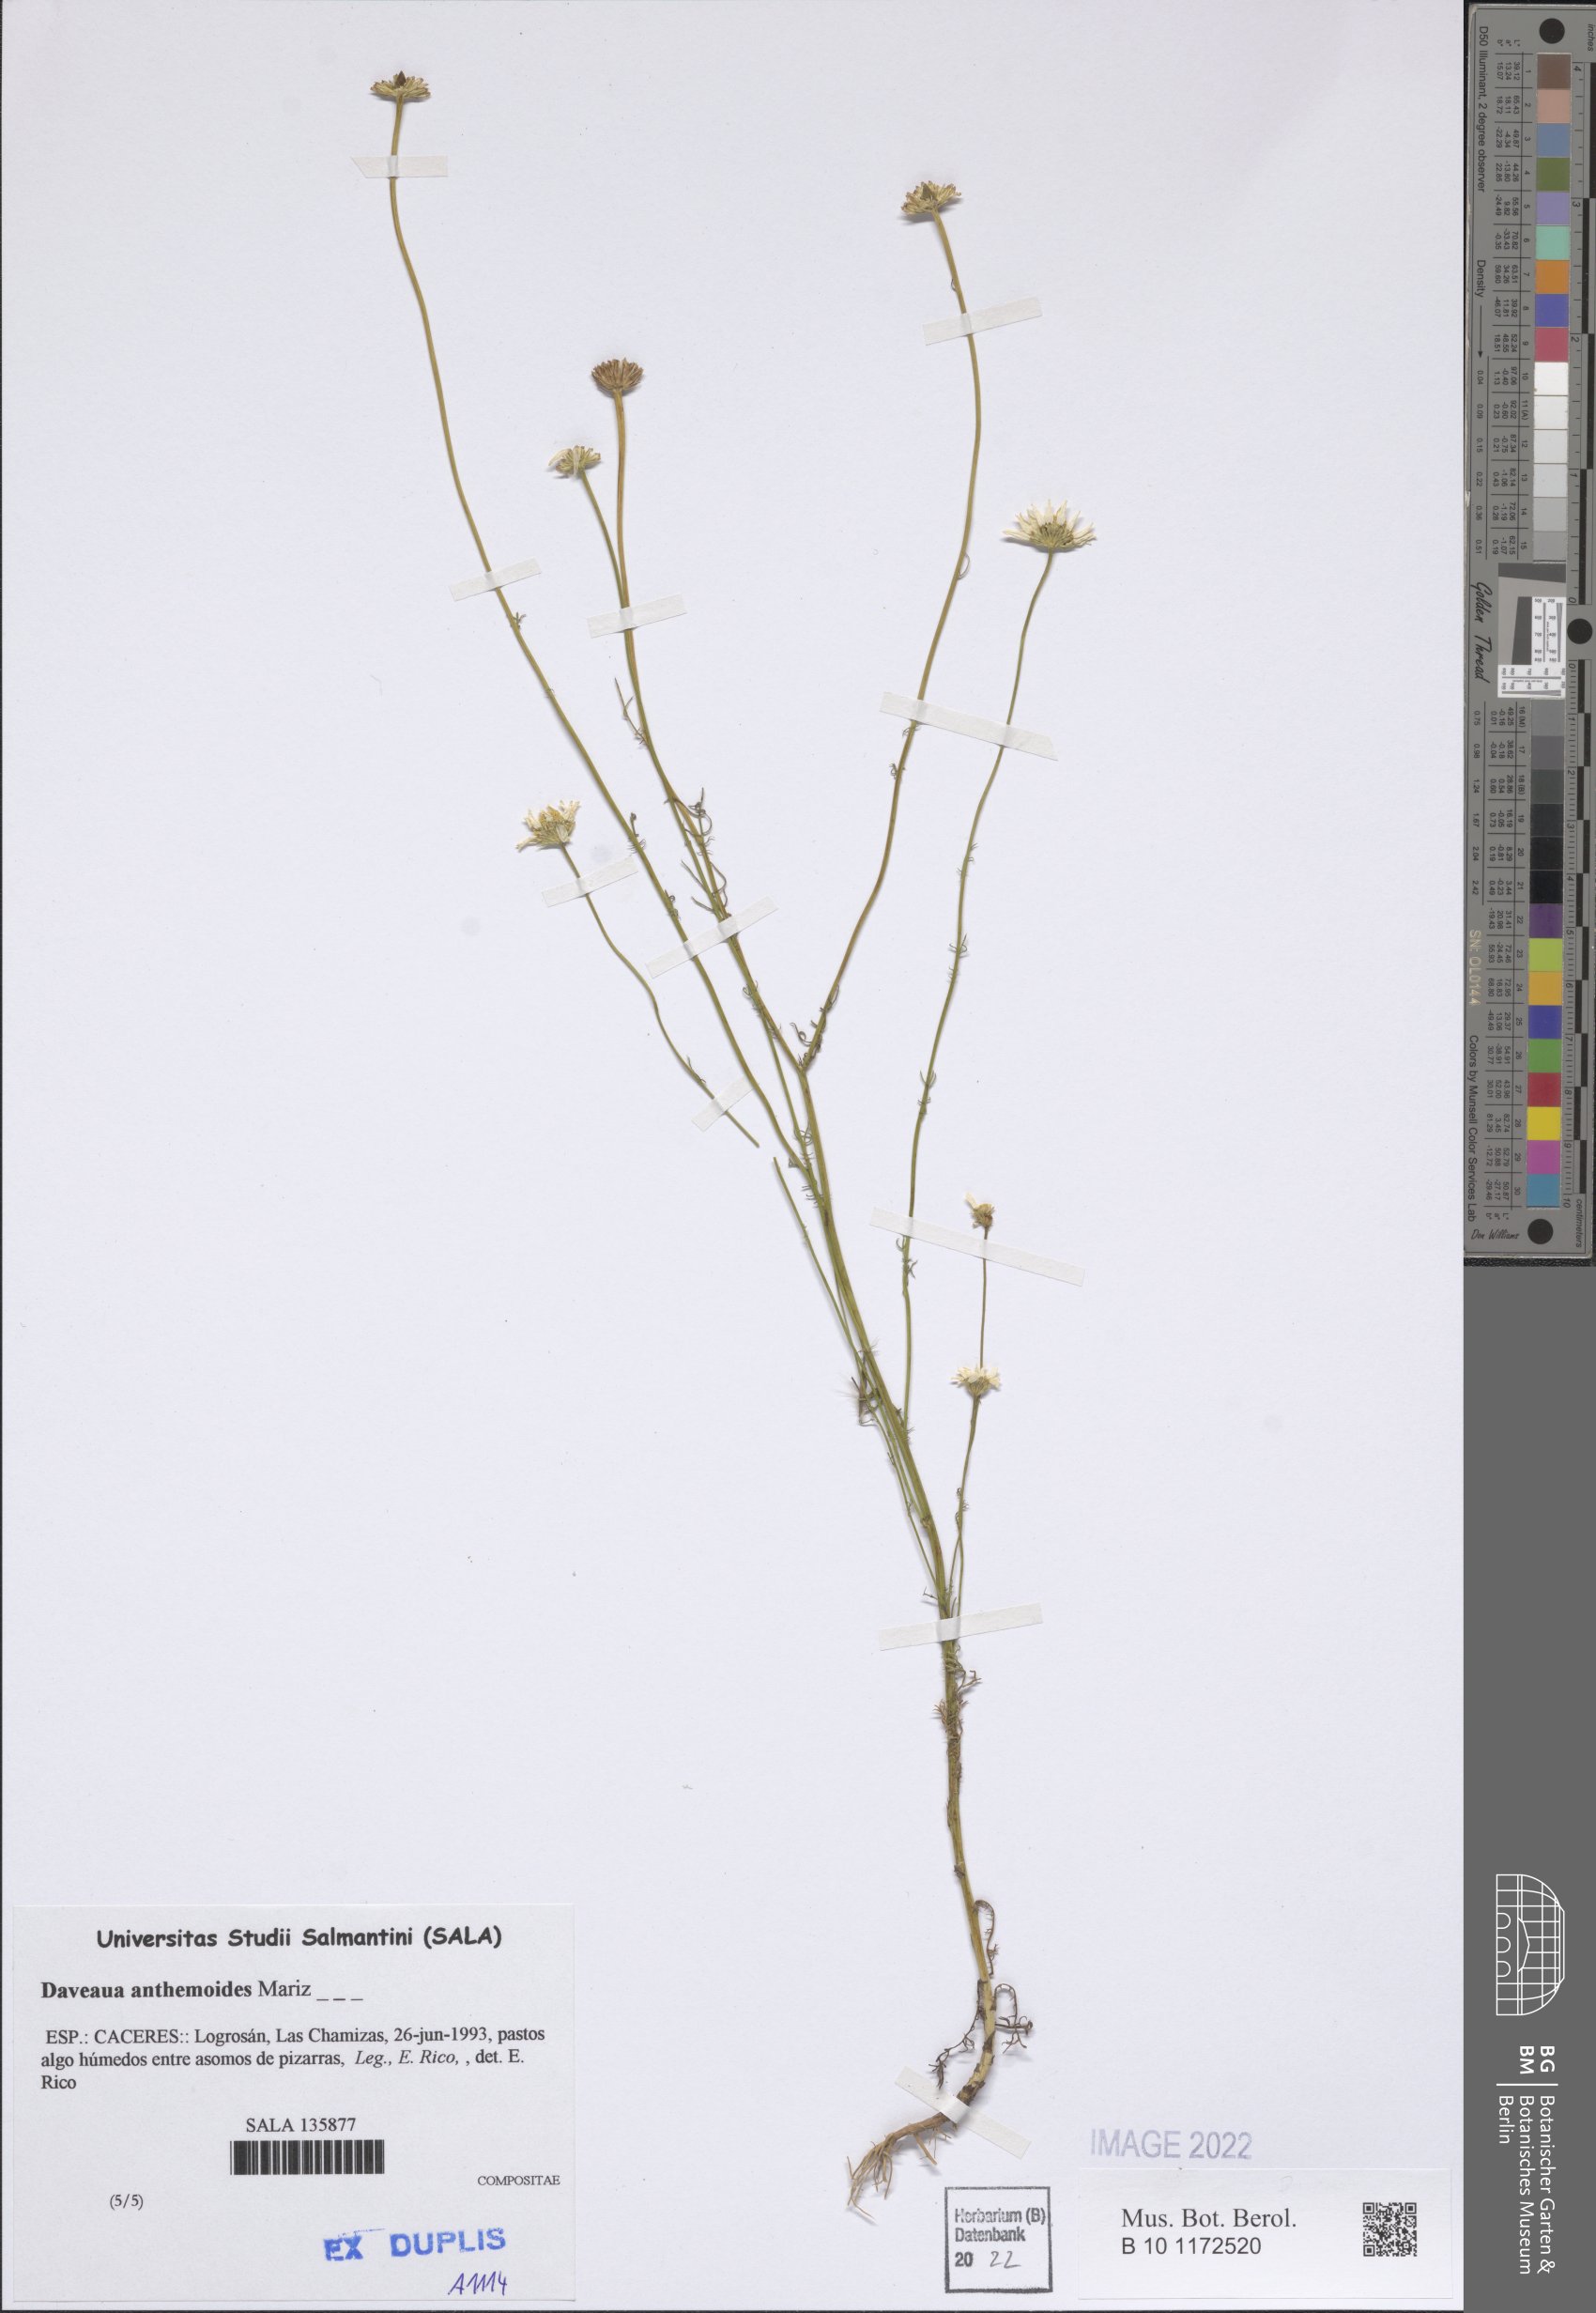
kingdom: Plantae
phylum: Tracheophyta
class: Magnoliopsida
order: Asterales
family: Asteraceae
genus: Daveaua
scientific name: Daveaua anthemoides
